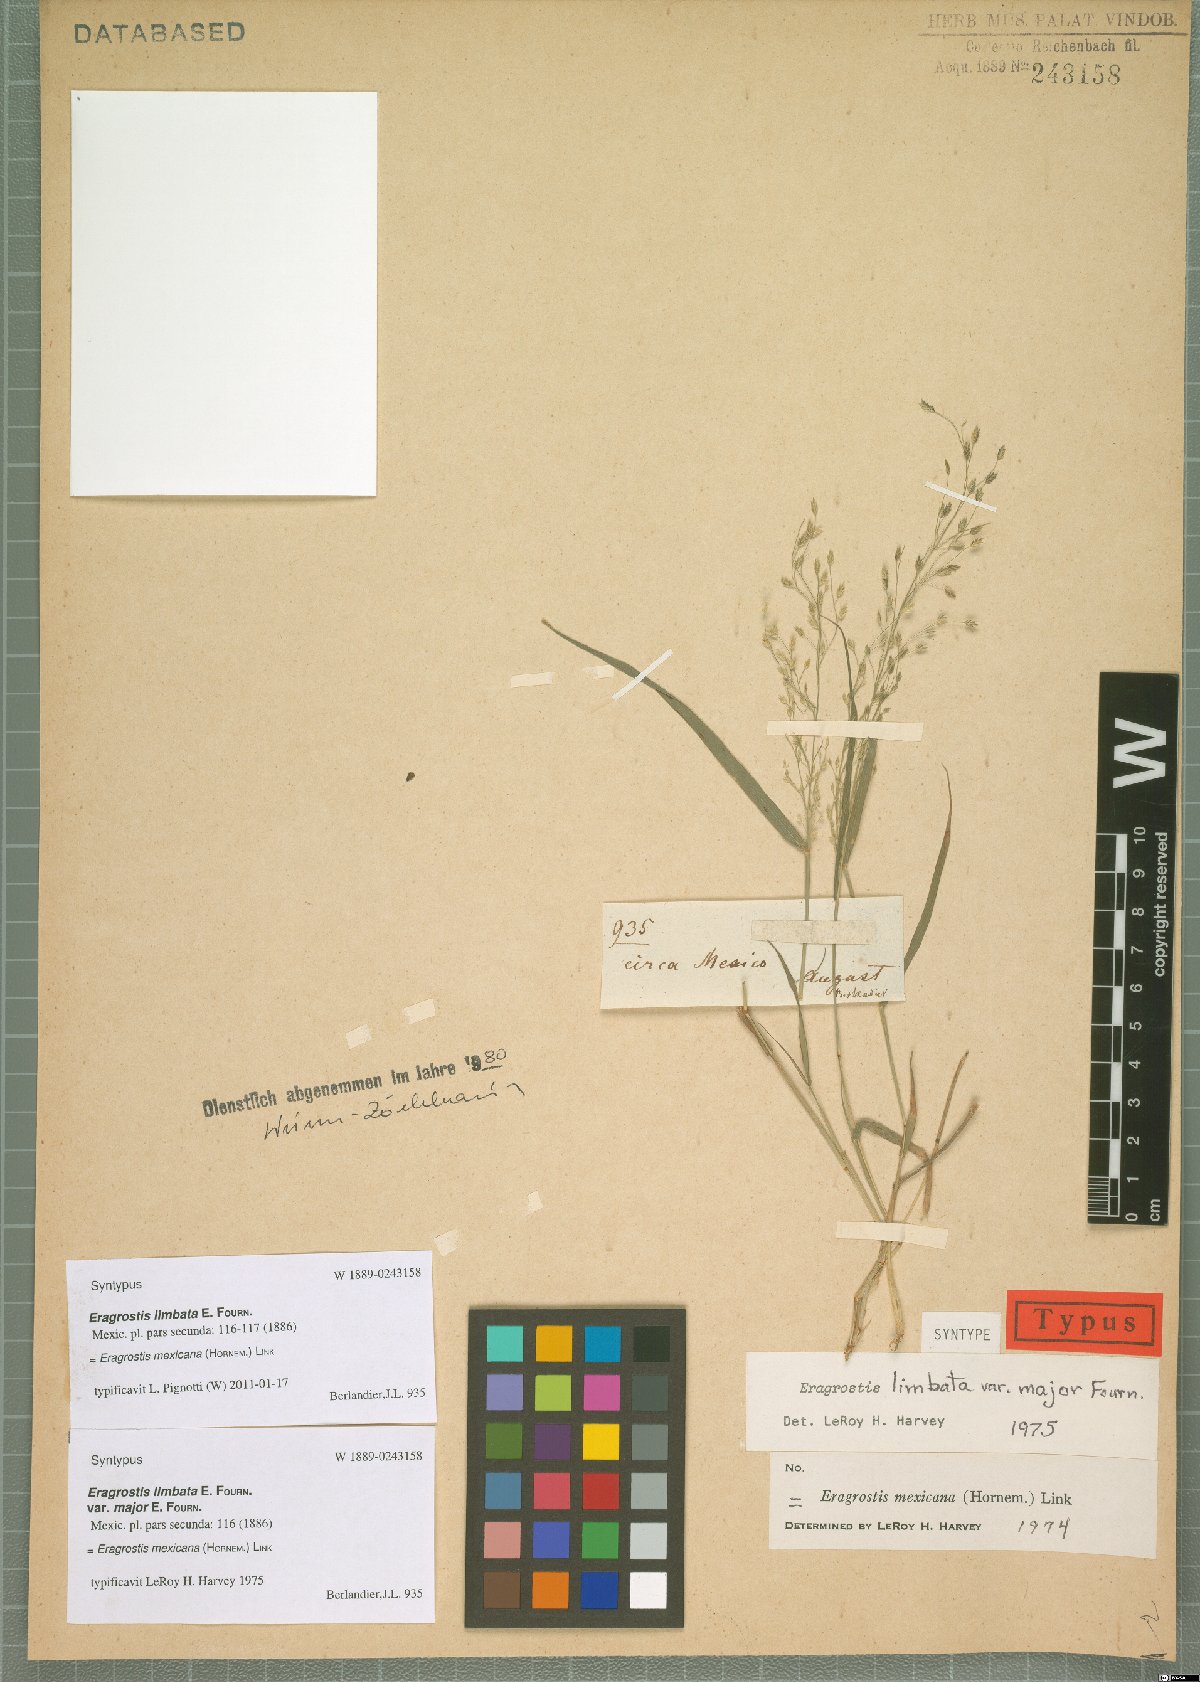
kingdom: Plantae
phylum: Tracheophyta
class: Liliopsida
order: Poales
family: Poaceae
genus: Eragrostis
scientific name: Eragrostis mexicana
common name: Mexican love grass
